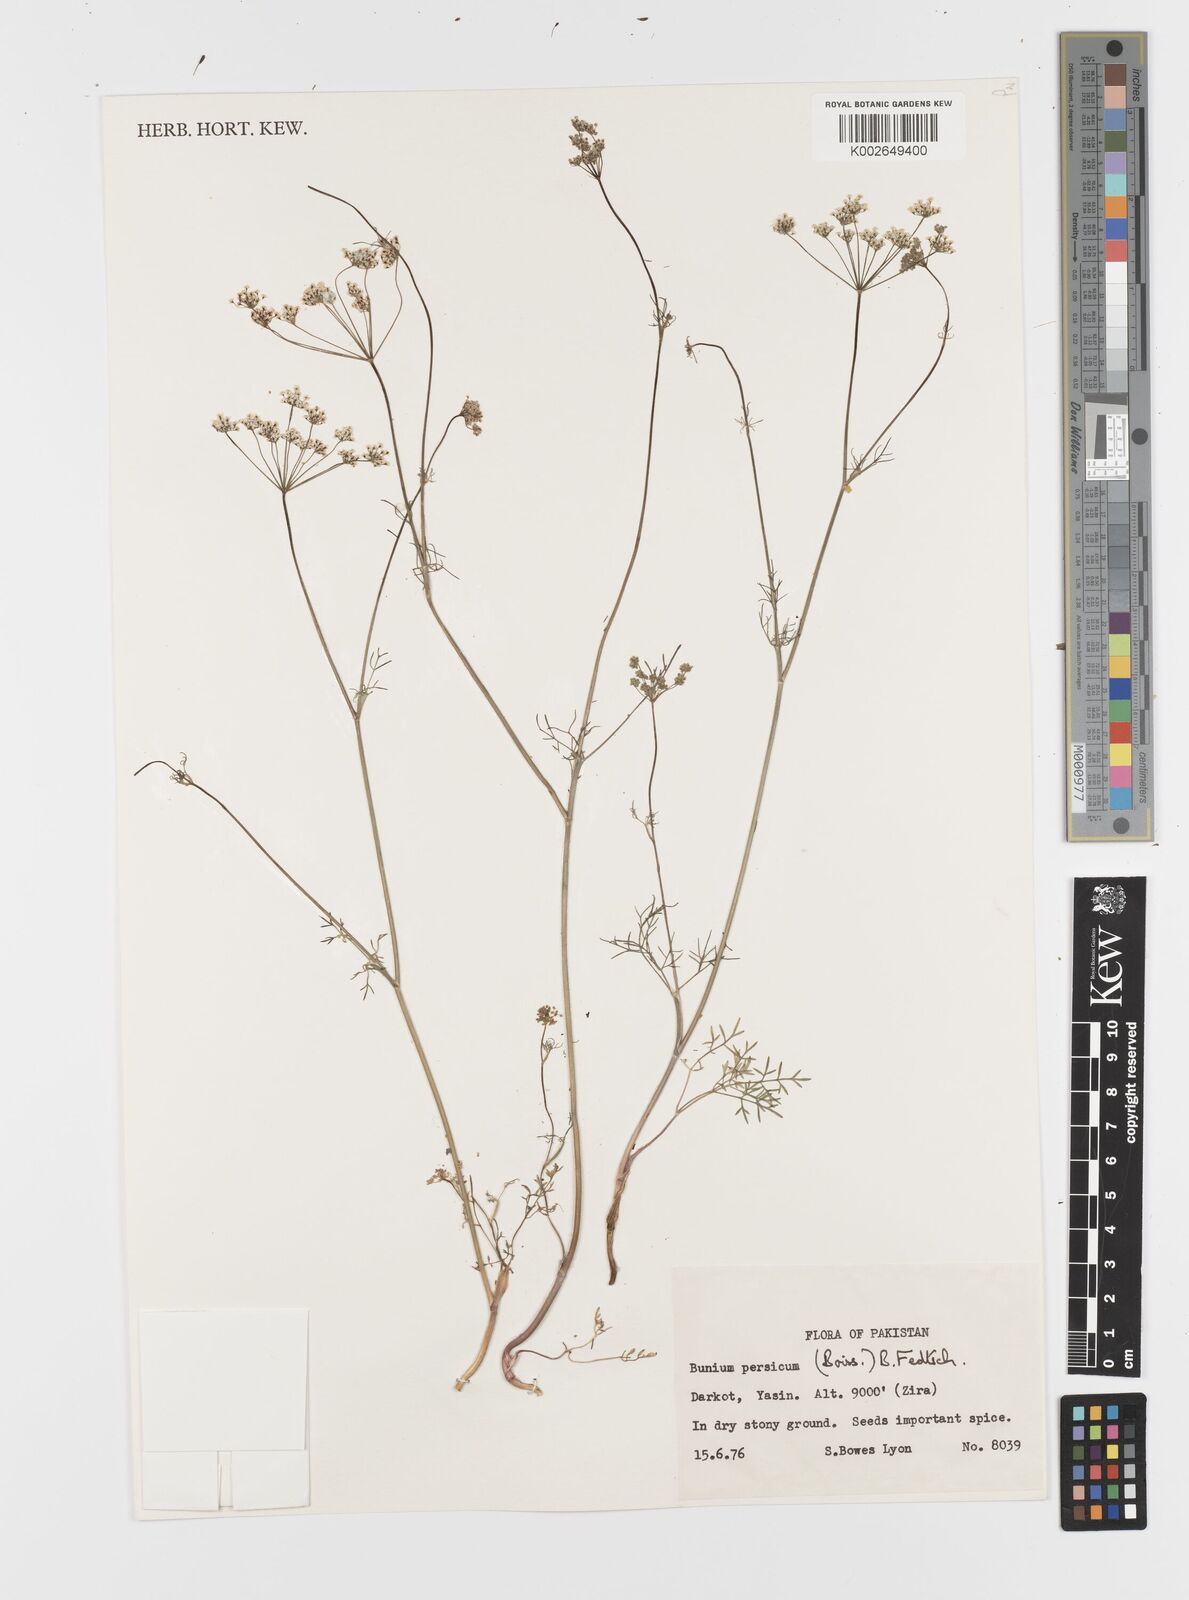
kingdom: Plantae
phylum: Tracheophyta
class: Magnoliopsida
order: Apiales
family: Apiaceae
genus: Elwendia
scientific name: Elwendia persica
